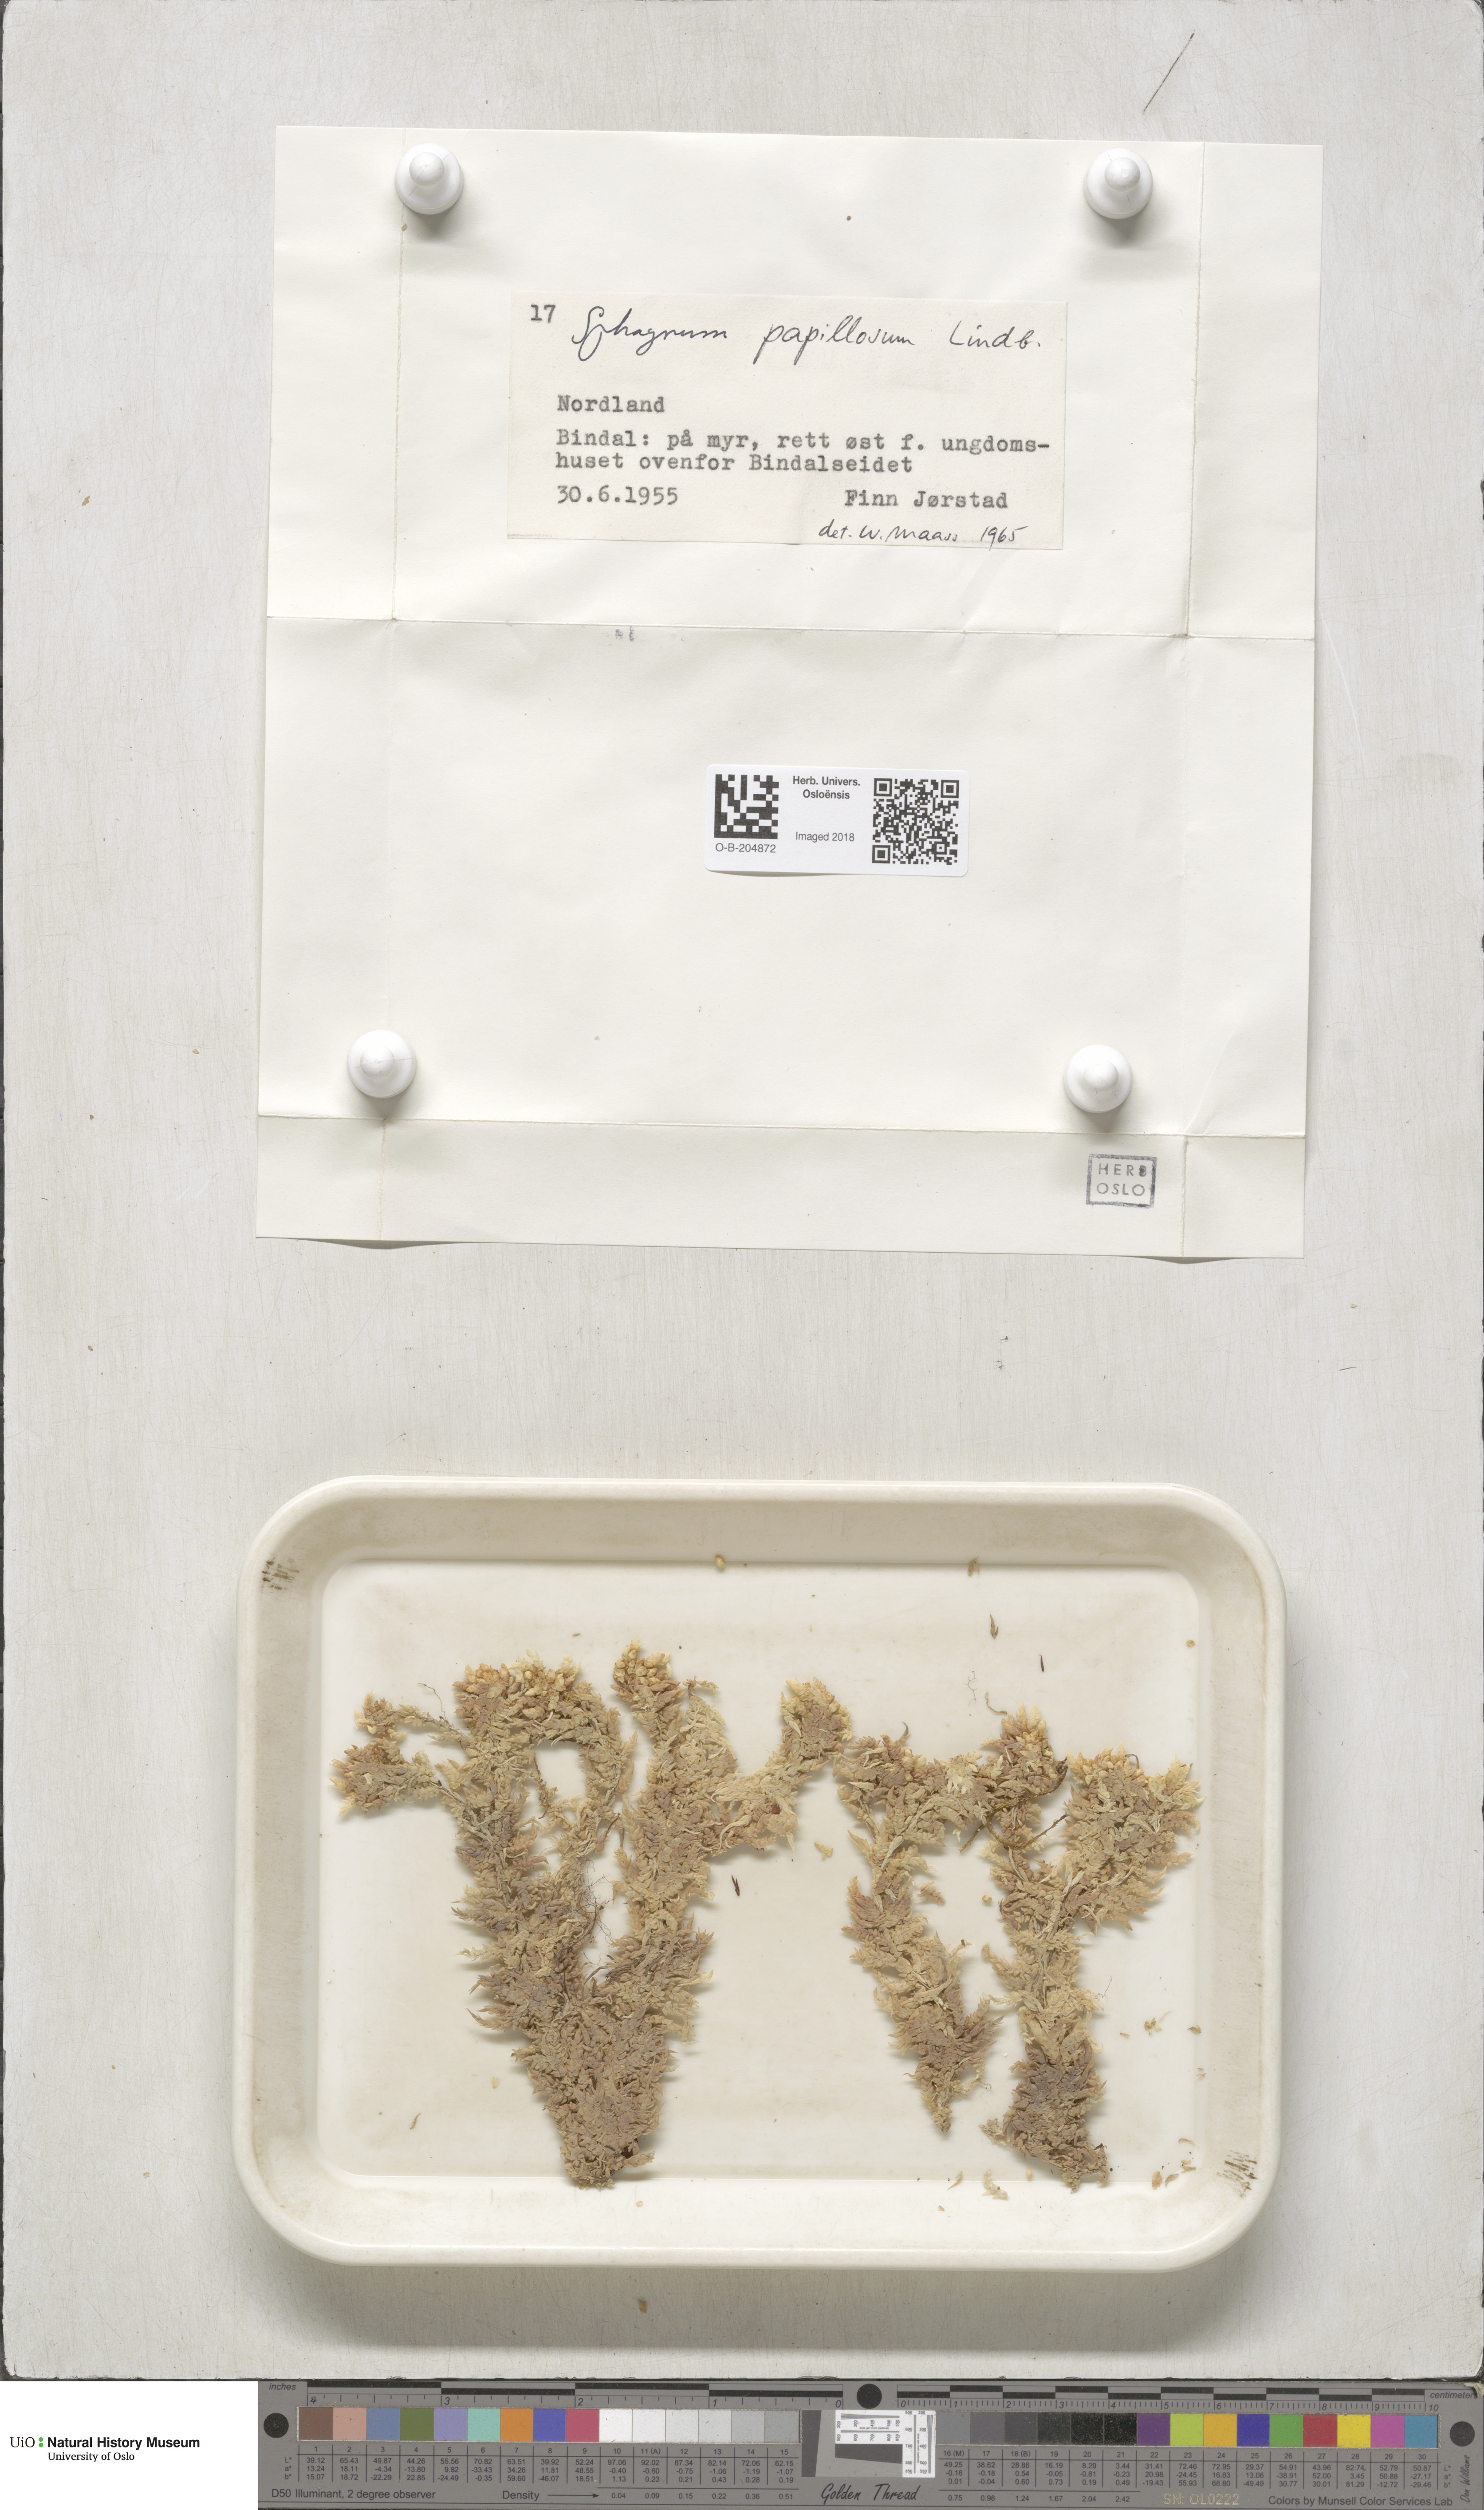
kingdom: Plantae
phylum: Bryophyta
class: Sphagnopsida
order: Sphagnales
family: Sphagnaceae
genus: Sphagnum
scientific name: Sphagnum papillosum
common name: Papillose peat moss
